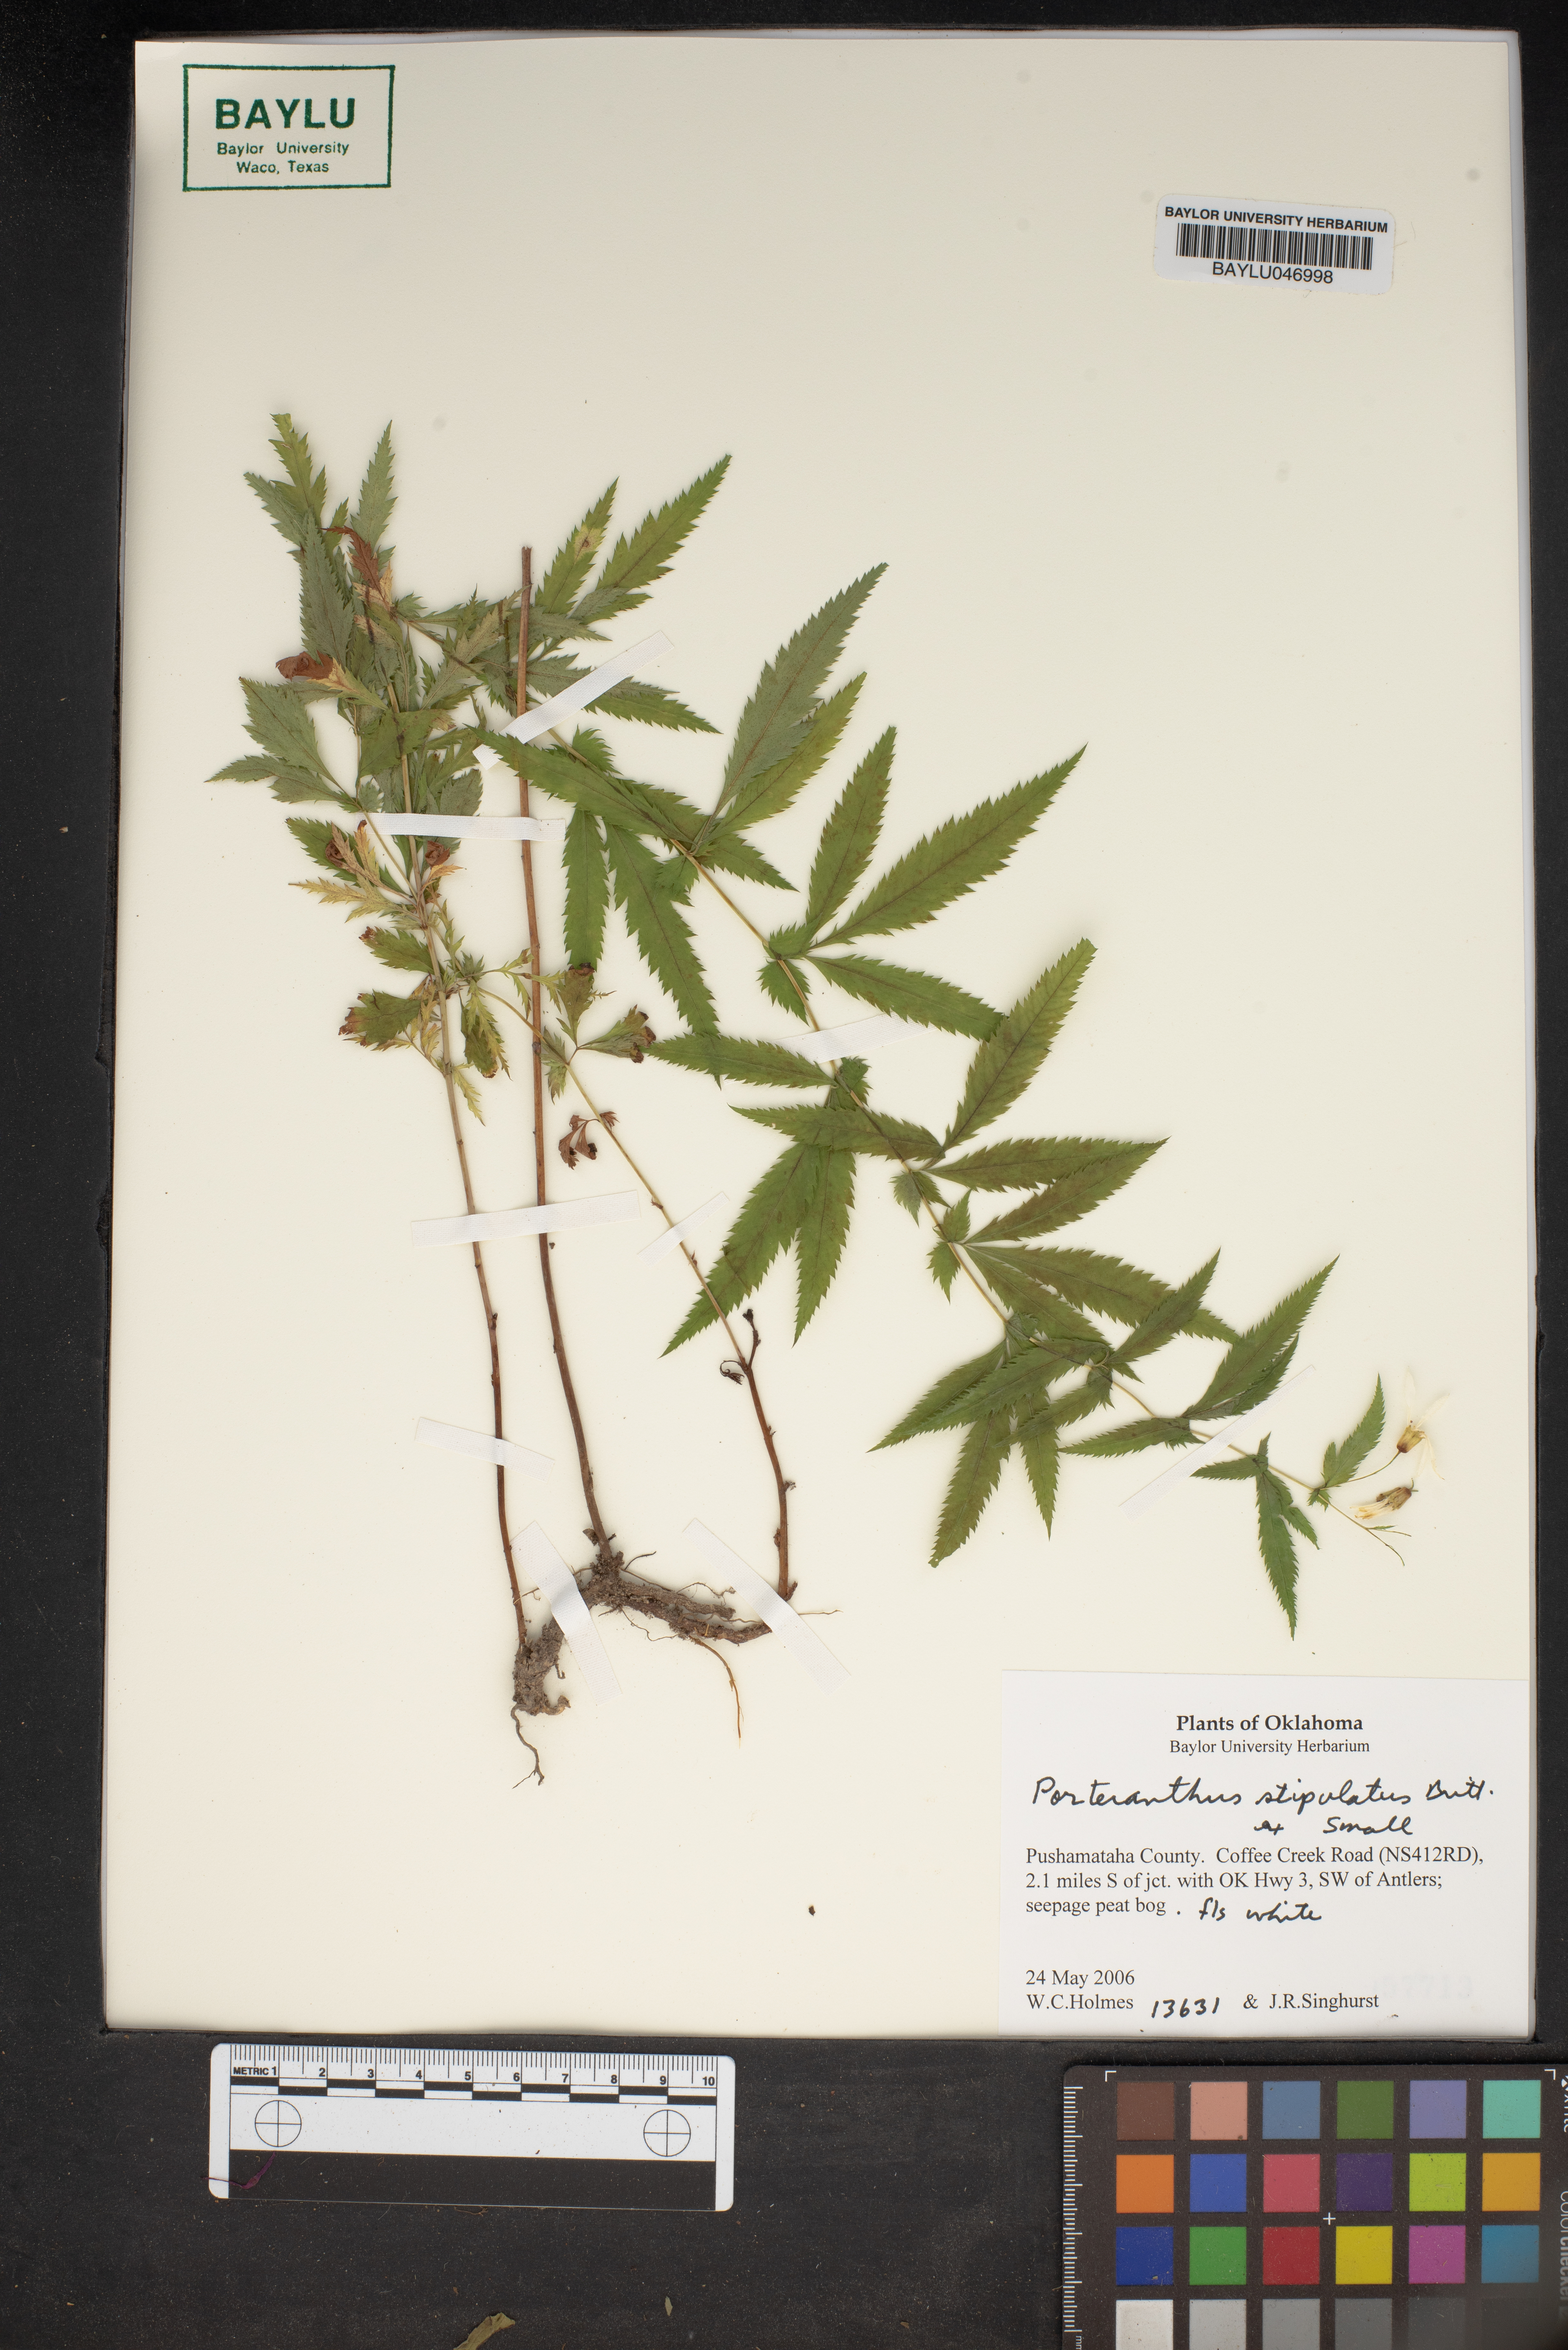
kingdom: Plantae
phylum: Tracheophyta
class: Magnoliopsida
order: Rosales
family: Rosaceae
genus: Gillenia
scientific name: Gillenia stipulata
